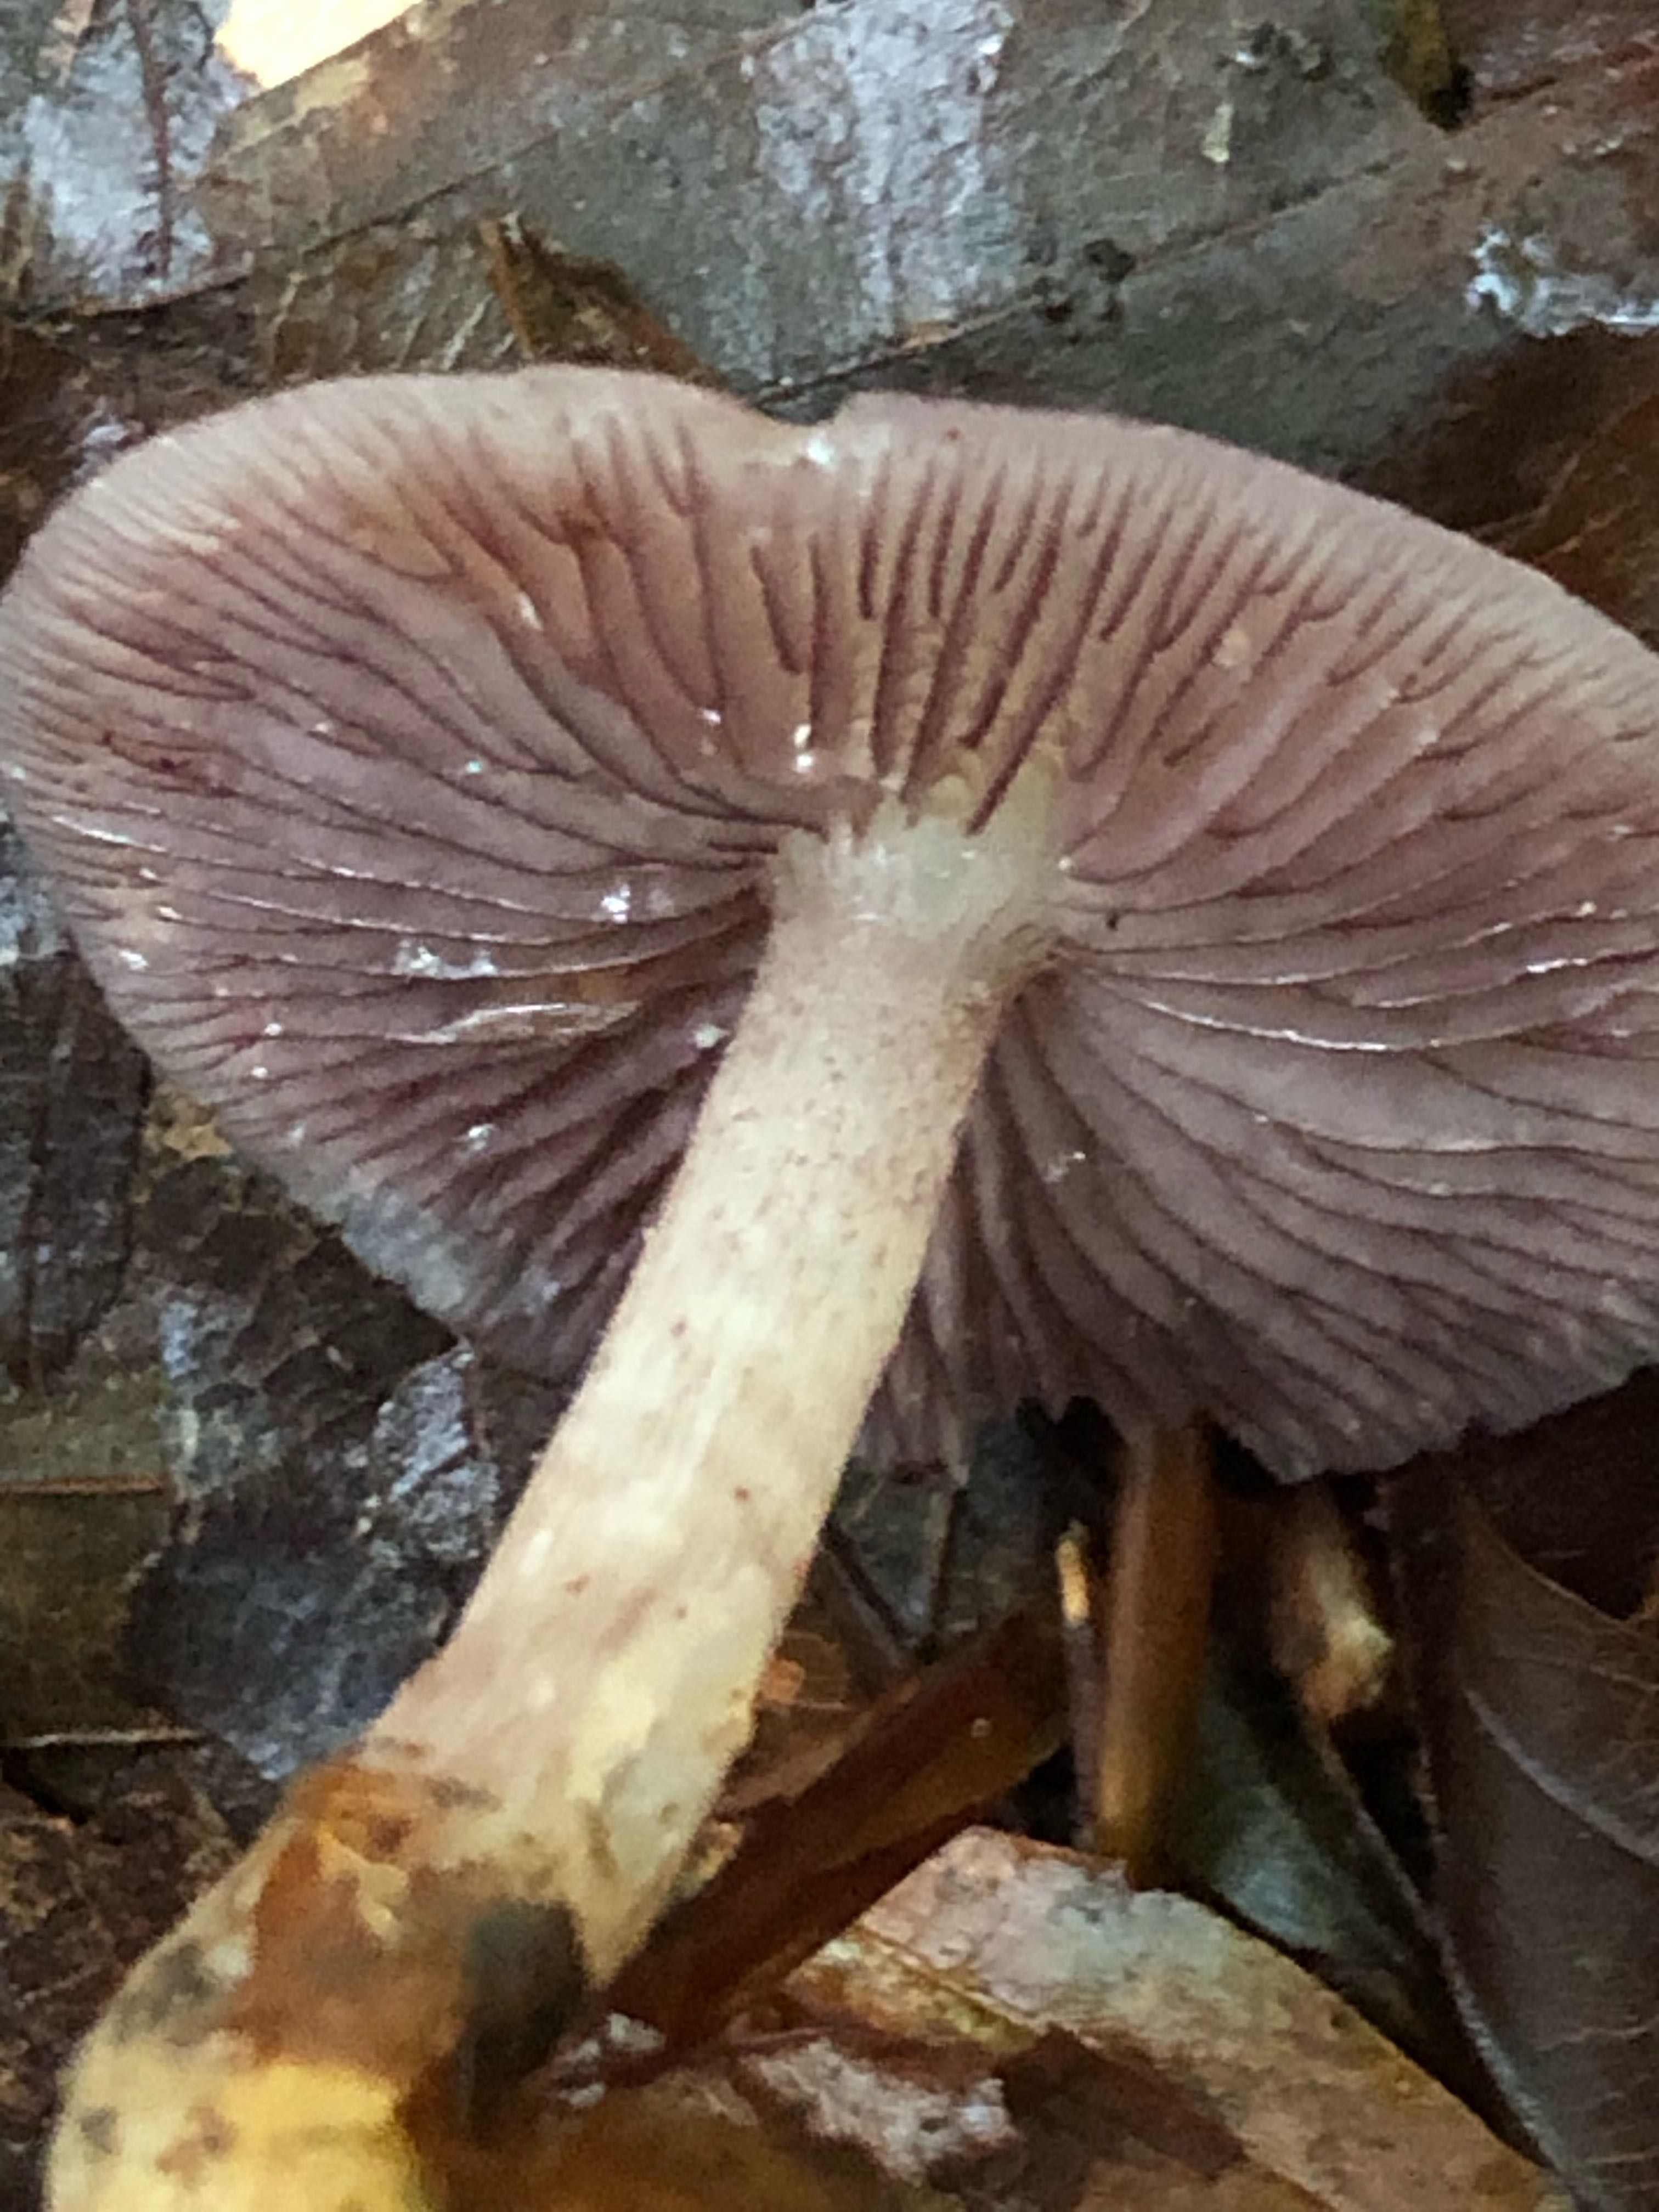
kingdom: Fungi
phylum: Basidiomycota
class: Agaricomycetes
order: Agaricales
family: Mycenaceae
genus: Mycena
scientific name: Mycena pelianthina
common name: mørkbladet huesvamp
